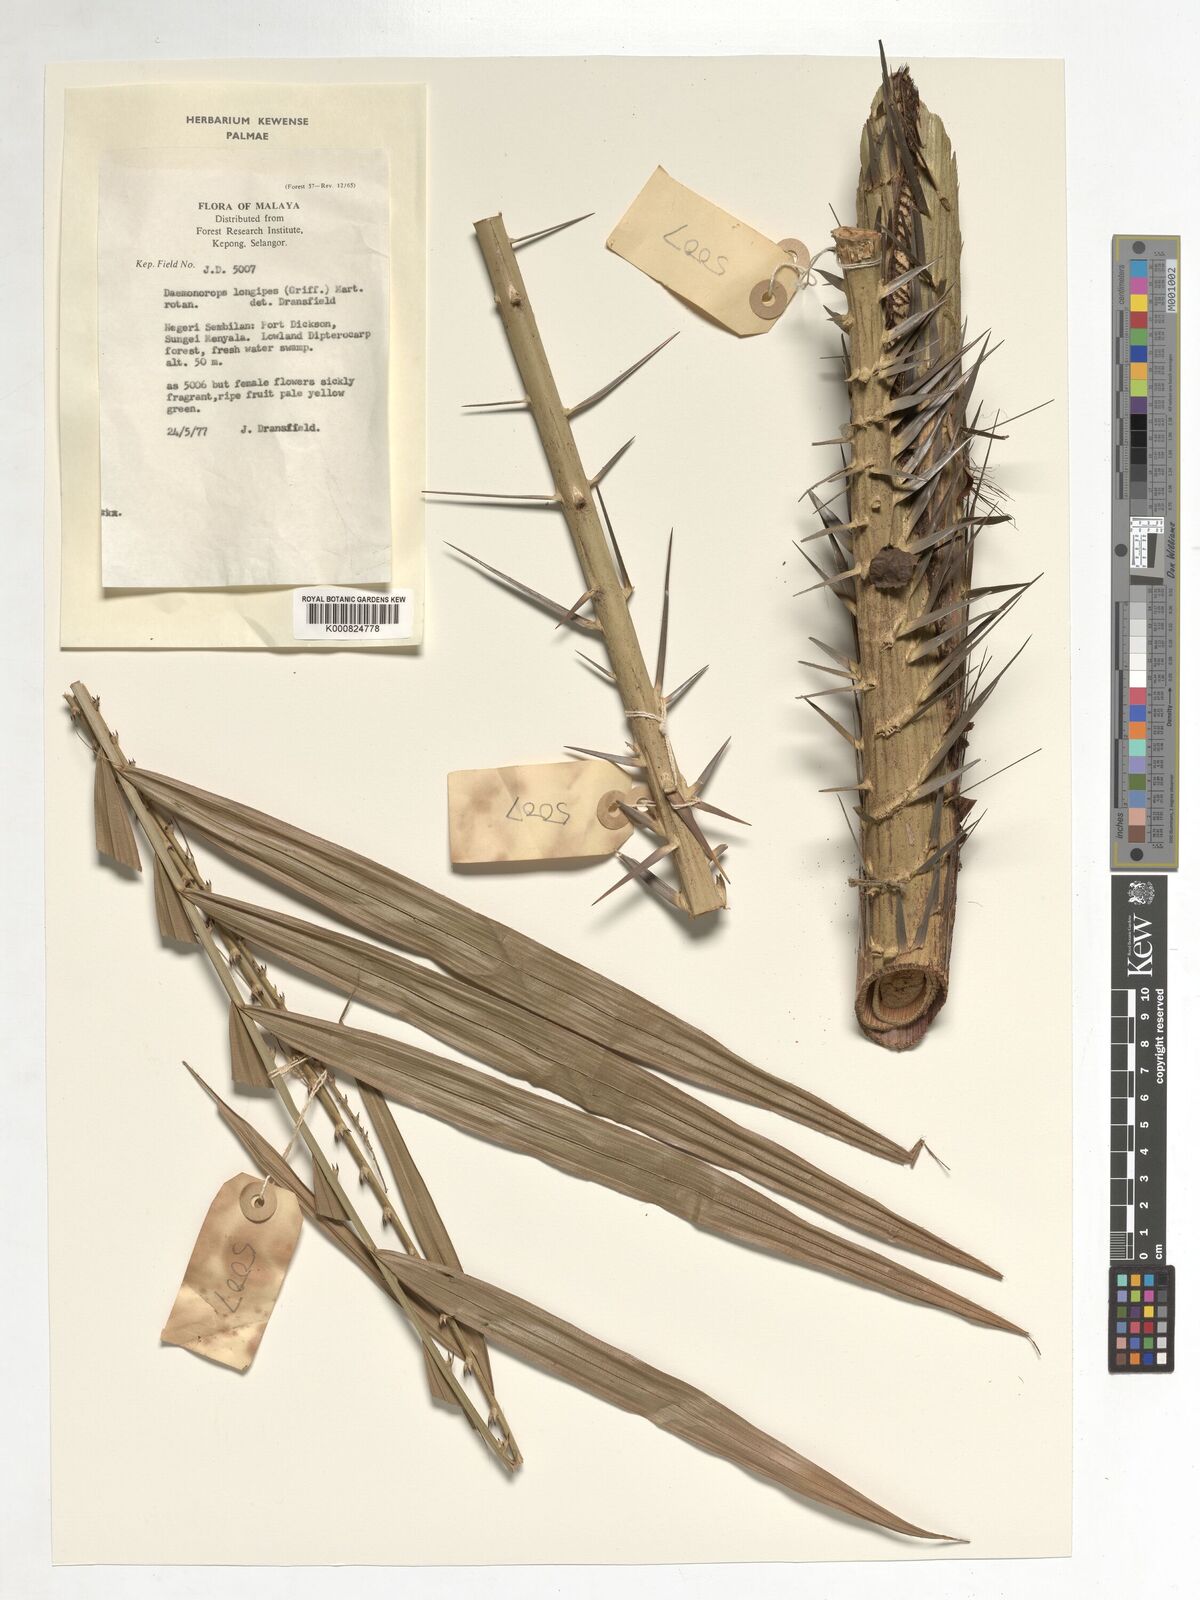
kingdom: Plantae
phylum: Tracheophyta
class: Liliopsida
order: Arecales
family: Arecaceae
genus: Calamus
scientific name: Calamus longipes
